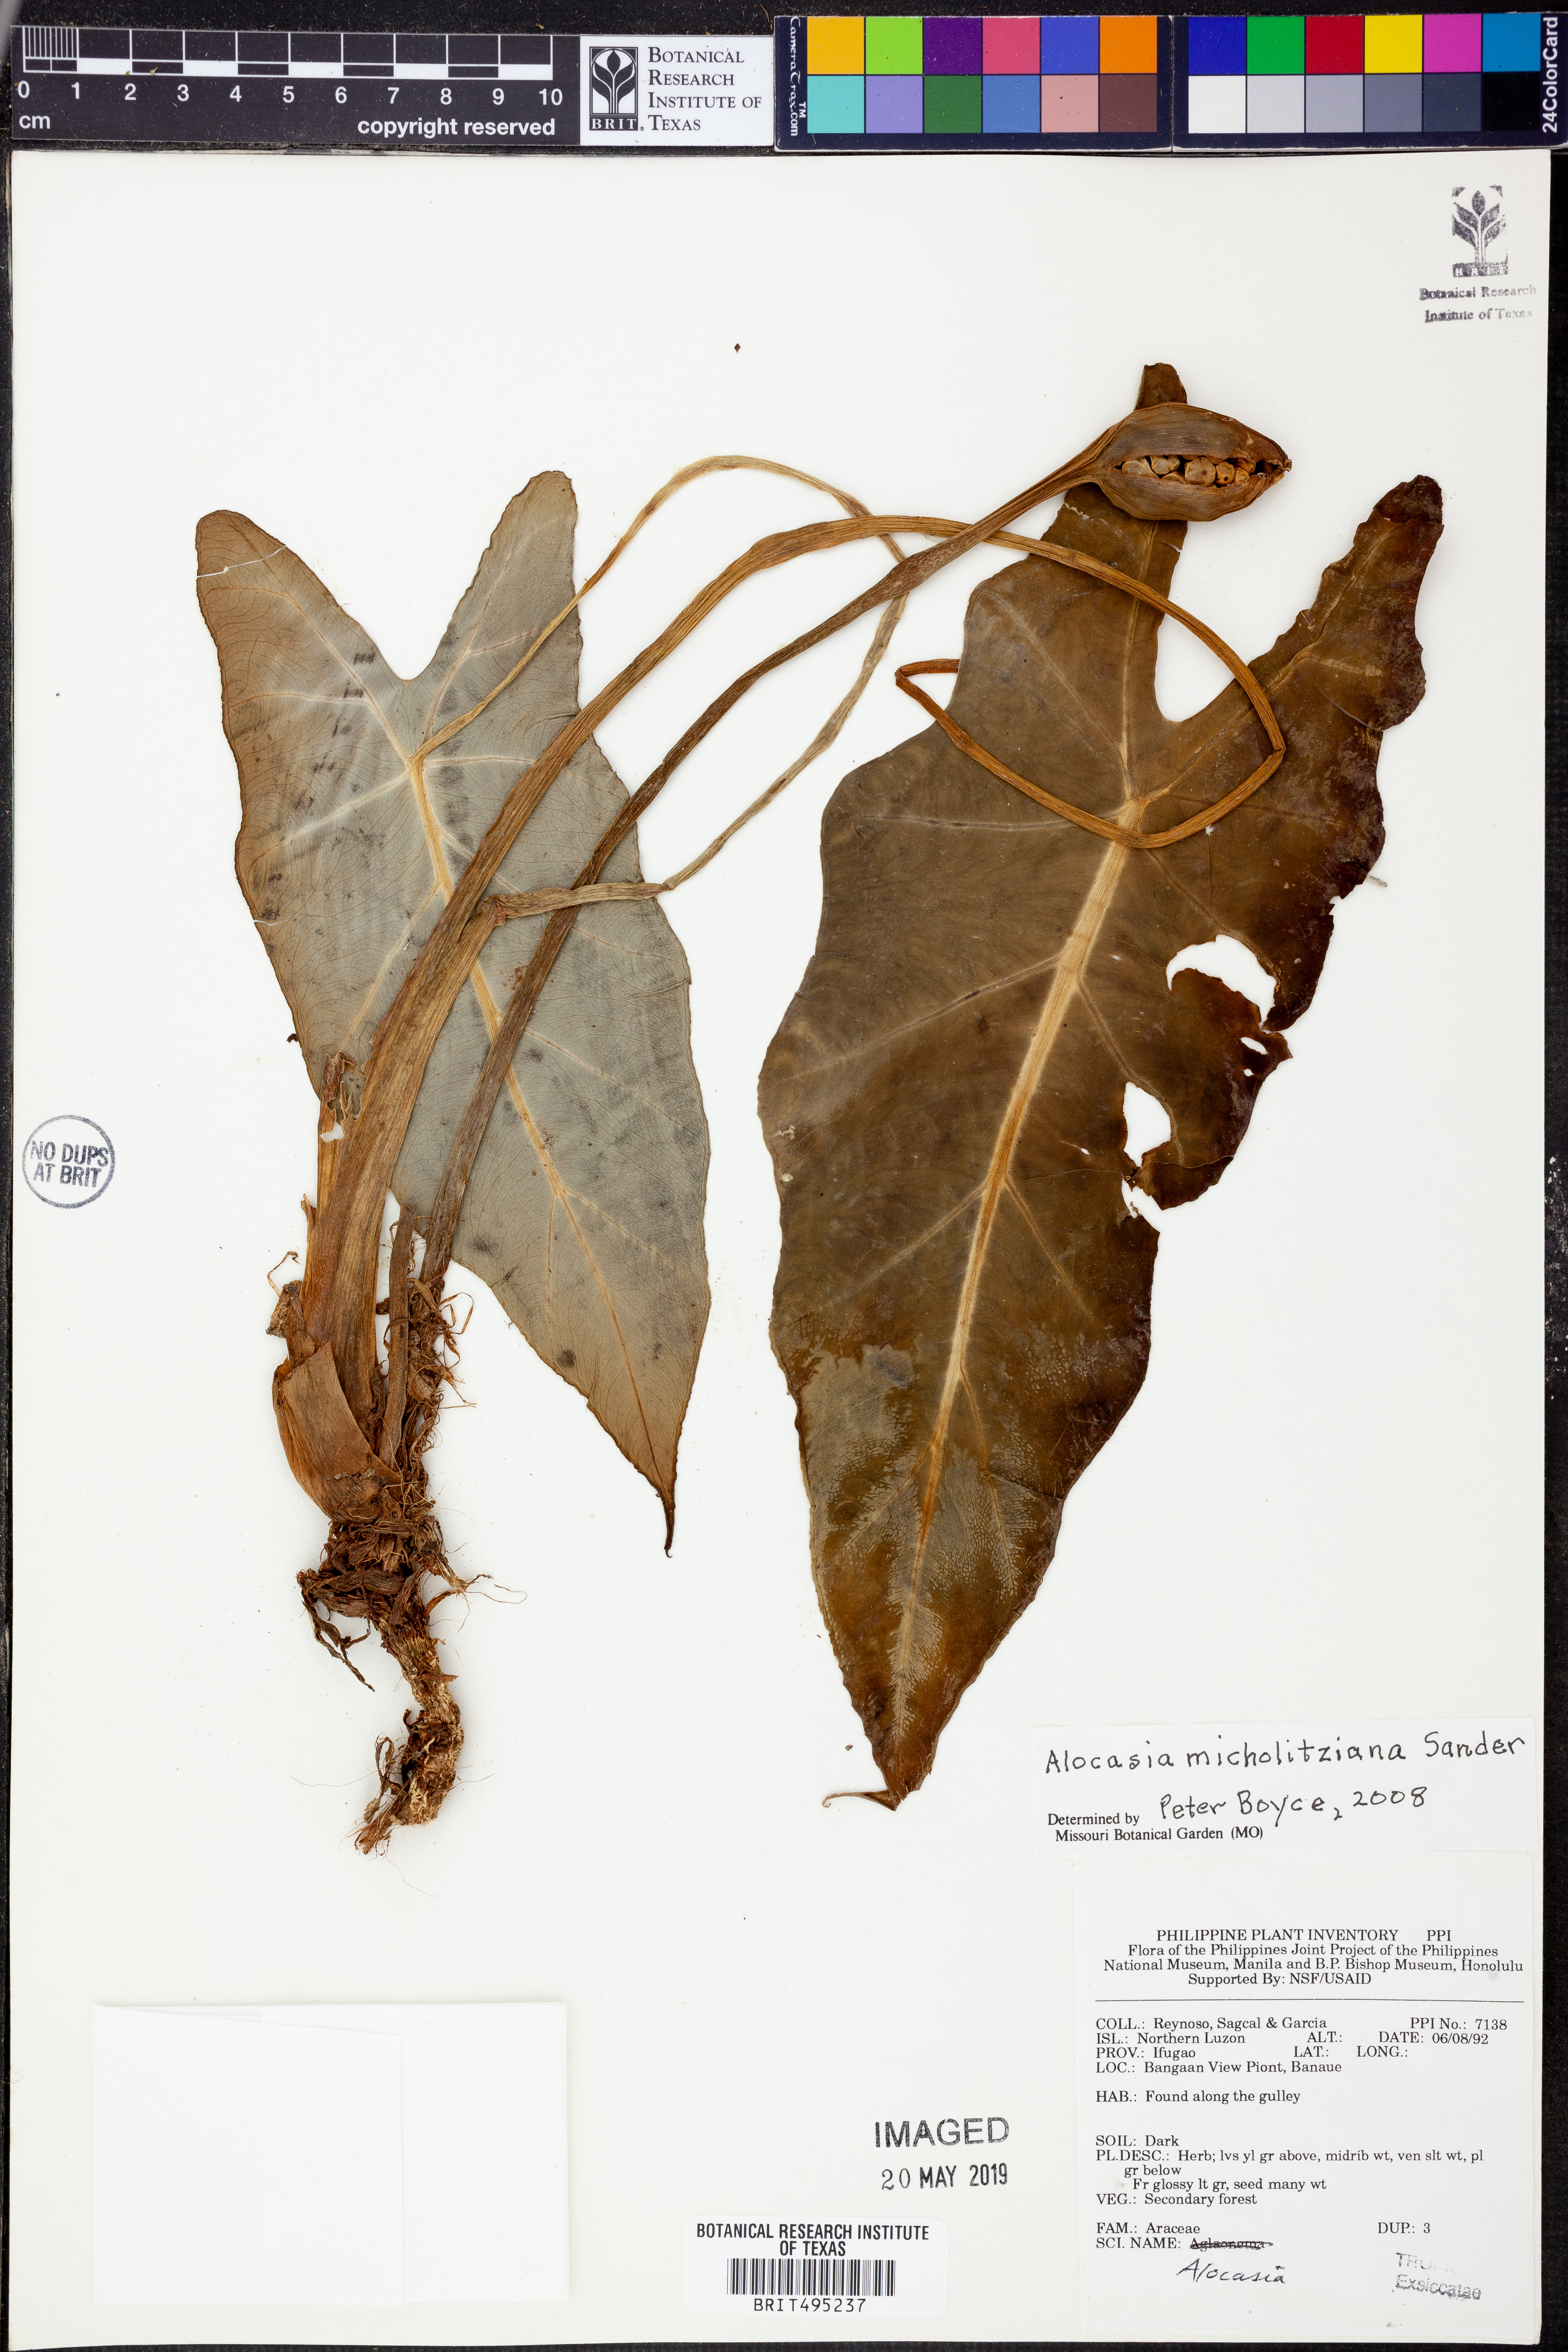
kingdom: Plantae
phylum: Tracheophyta
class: Liliopsida
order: Alismatales
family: Araceae
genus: Alocasia
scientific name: Alocasia micholitziana
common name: Green-velvet alocasia
